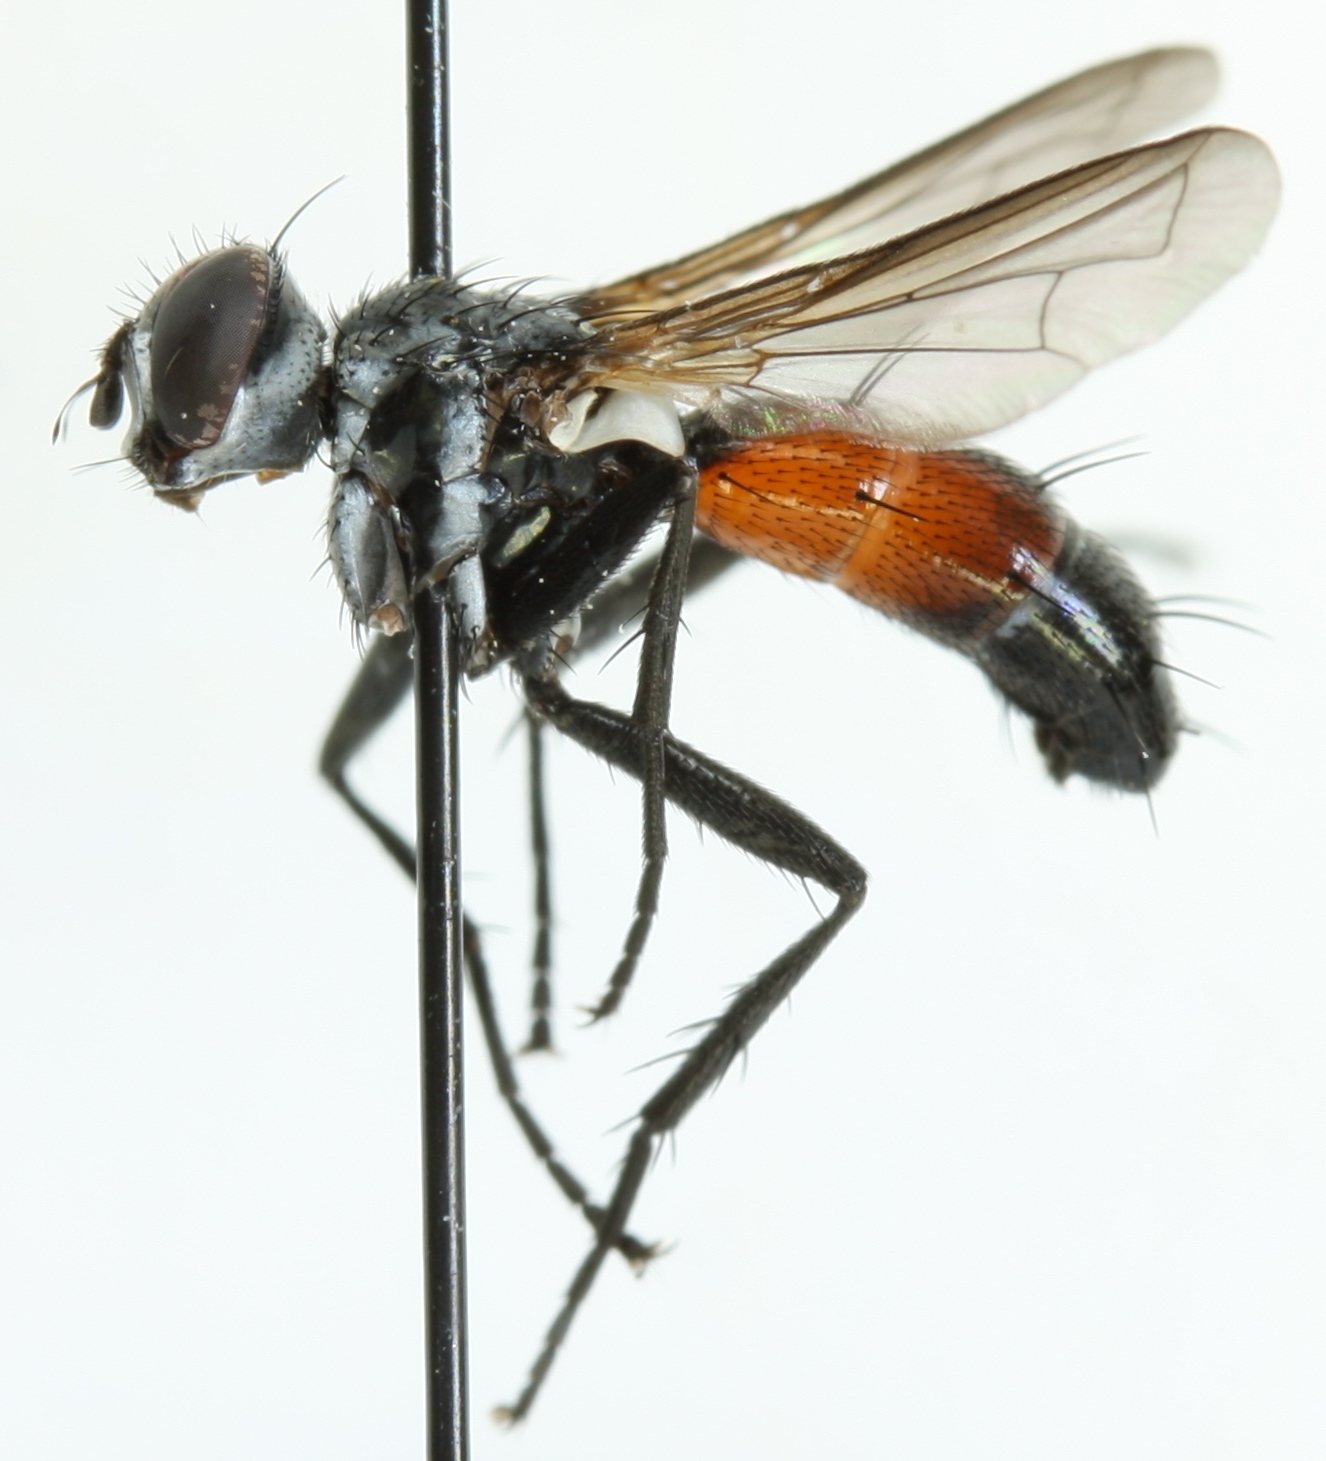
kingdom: Animalia
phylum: Arthropoda
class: Insecta
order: Diptera
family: Tachinidae
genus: Cylindromyia
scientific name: Cylindromyia pusilla
